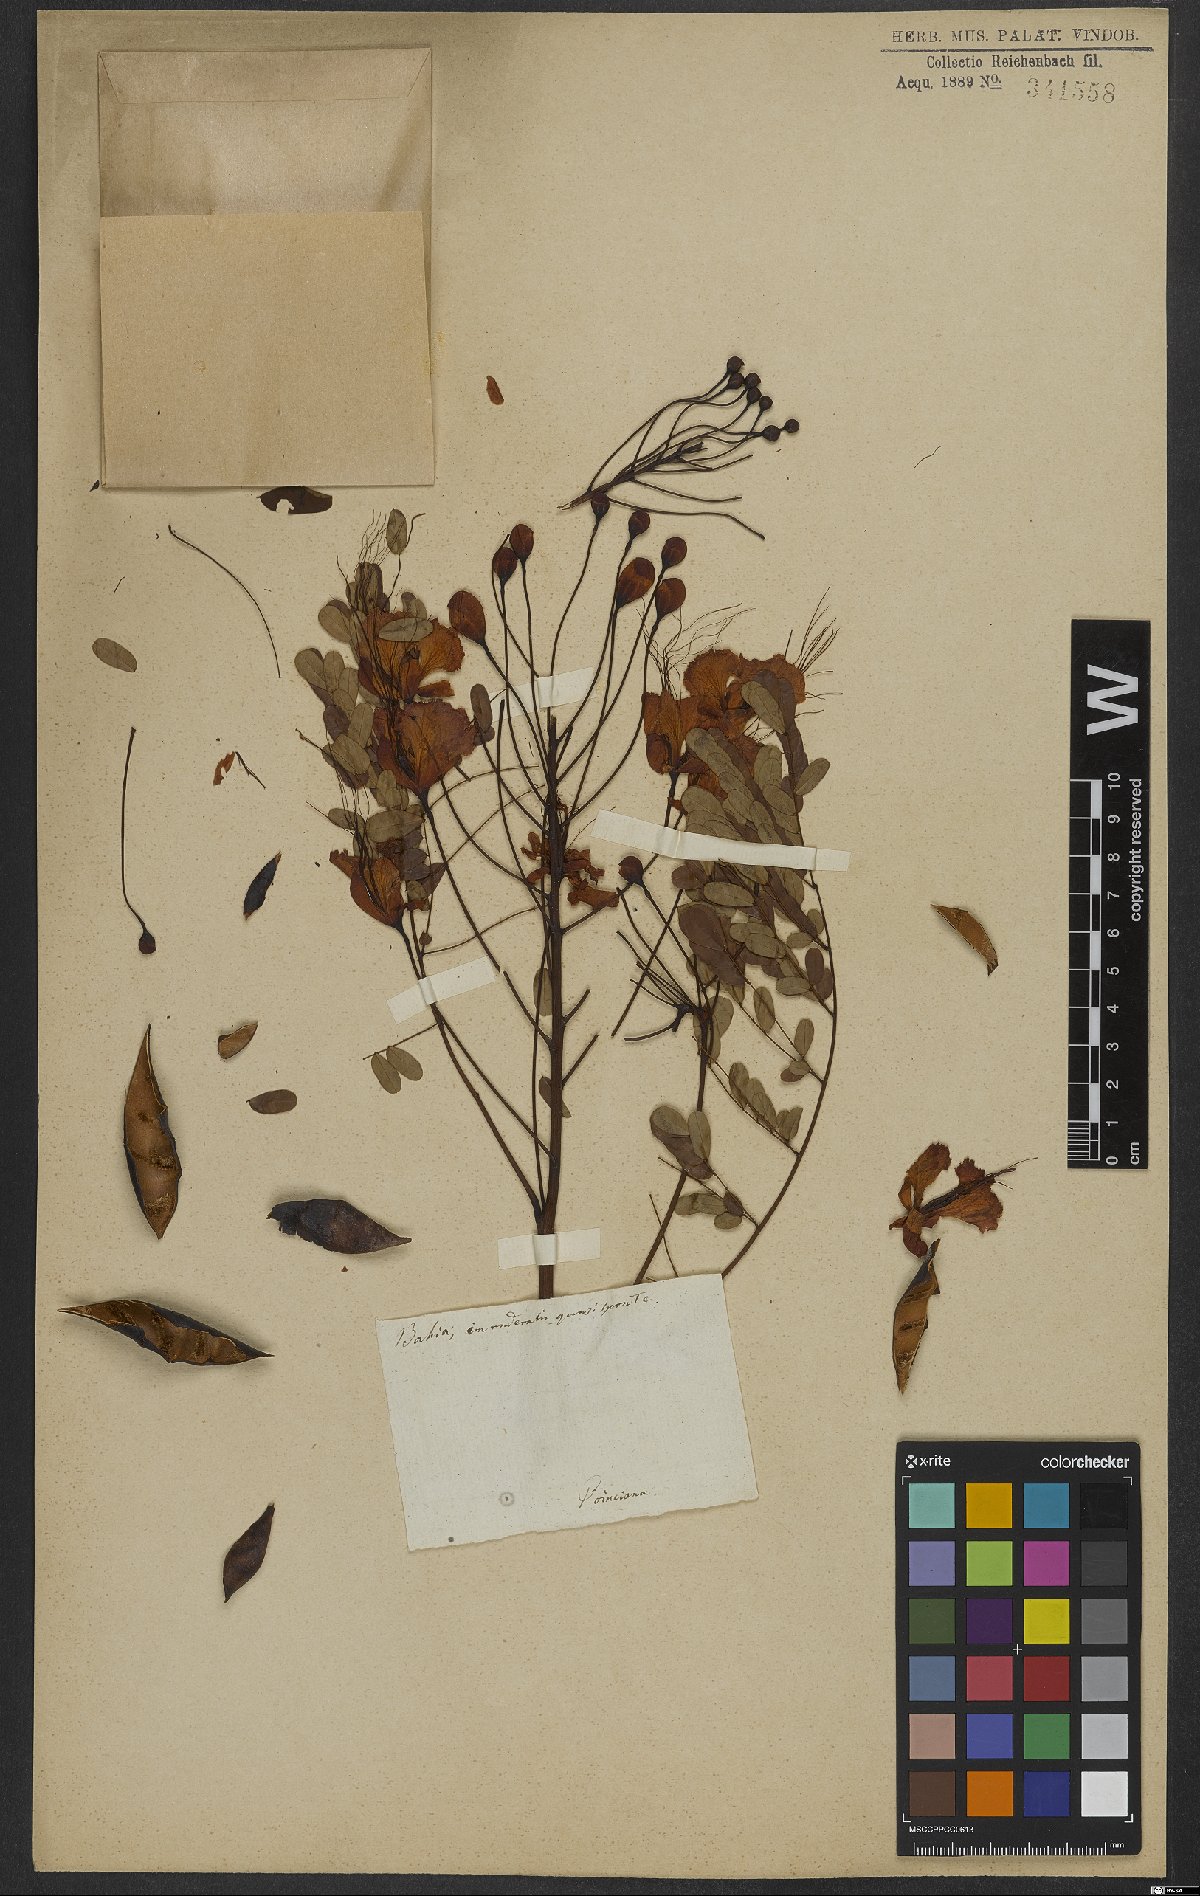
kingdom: Plantae
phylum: Tracheophyta
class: Magnoliopsida
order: Fabales
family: Fabaceae
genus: Caesalpinia
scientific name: Caesalpinia pulcherrima
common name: Pride-of-barbados
